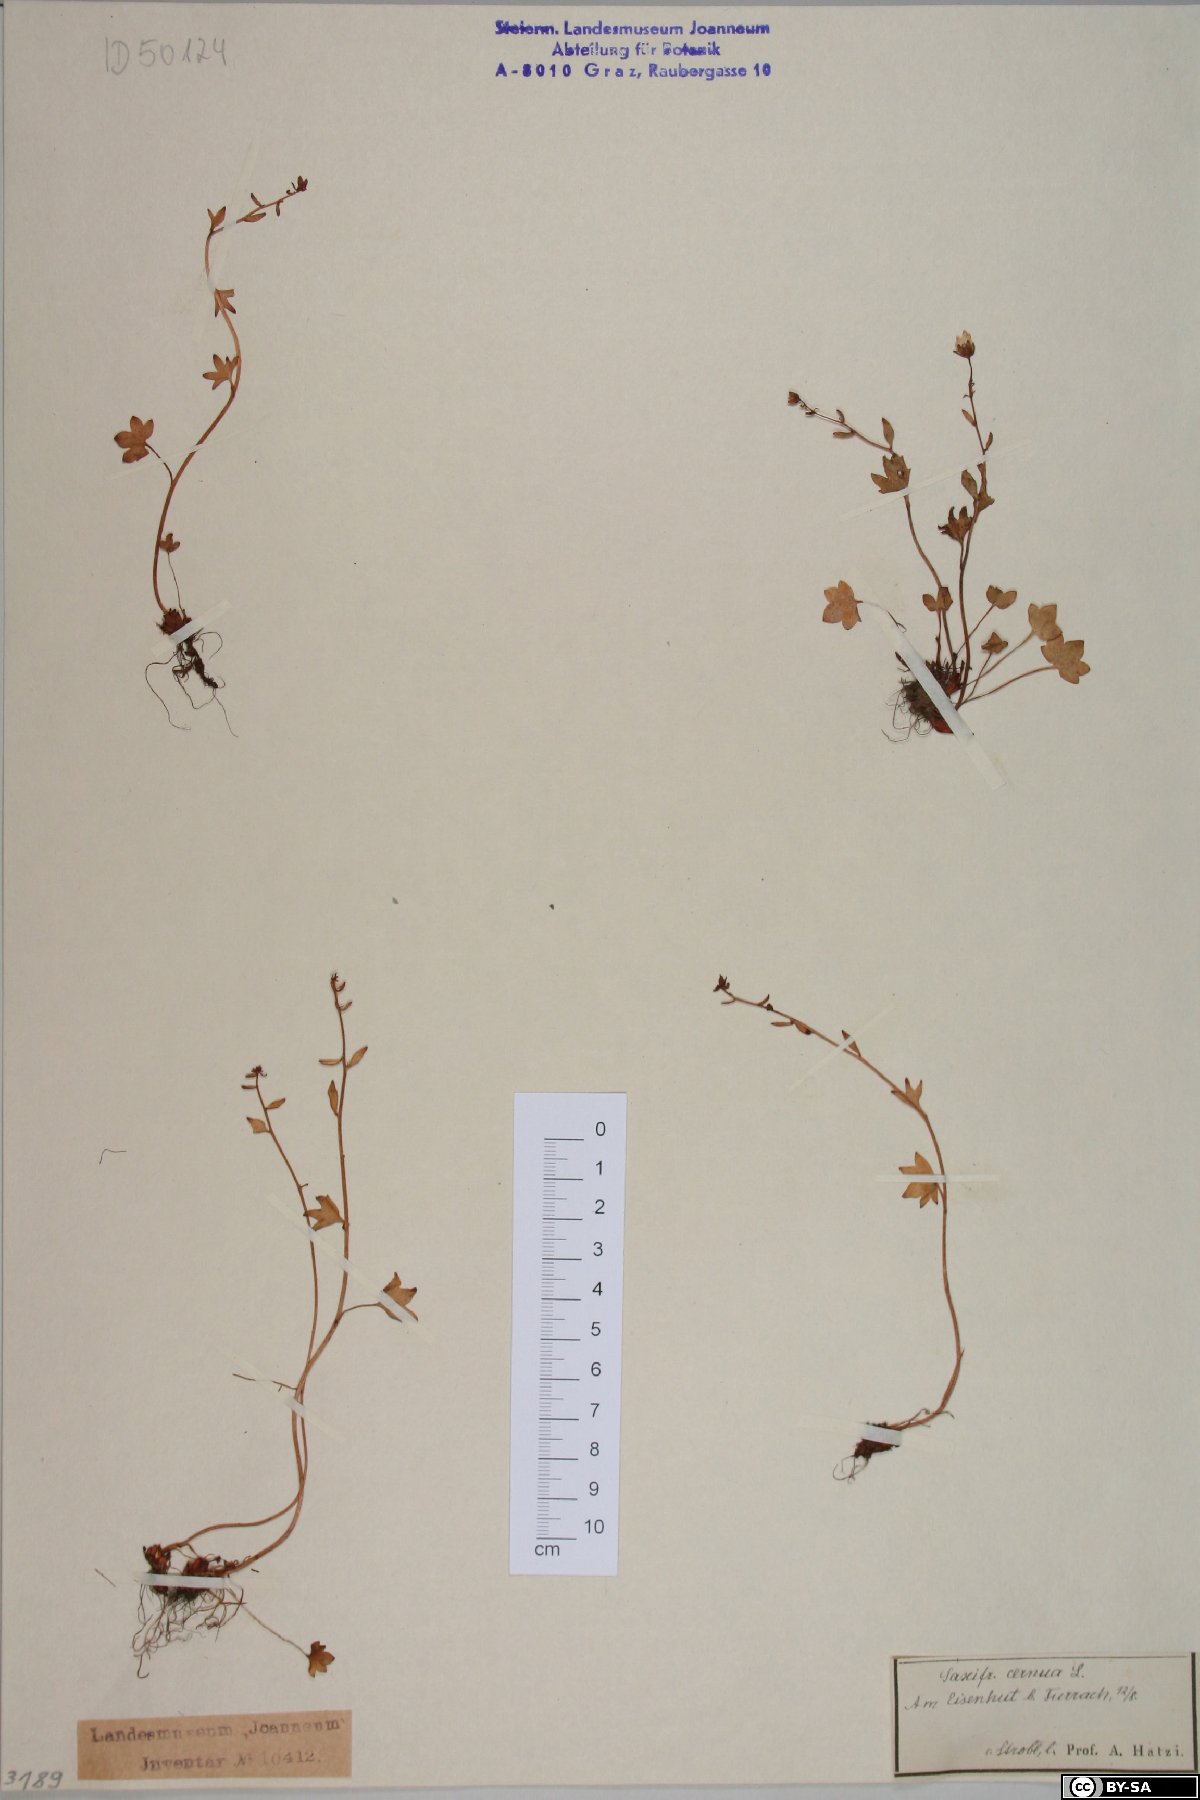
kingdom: Plantae
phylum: Tracheophyta
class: Magnoliopsida
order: Saxifragales
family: Saxifragaceae
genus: Saxifraga
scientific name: Saxifraga cernua
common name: Drooping saxifrage
